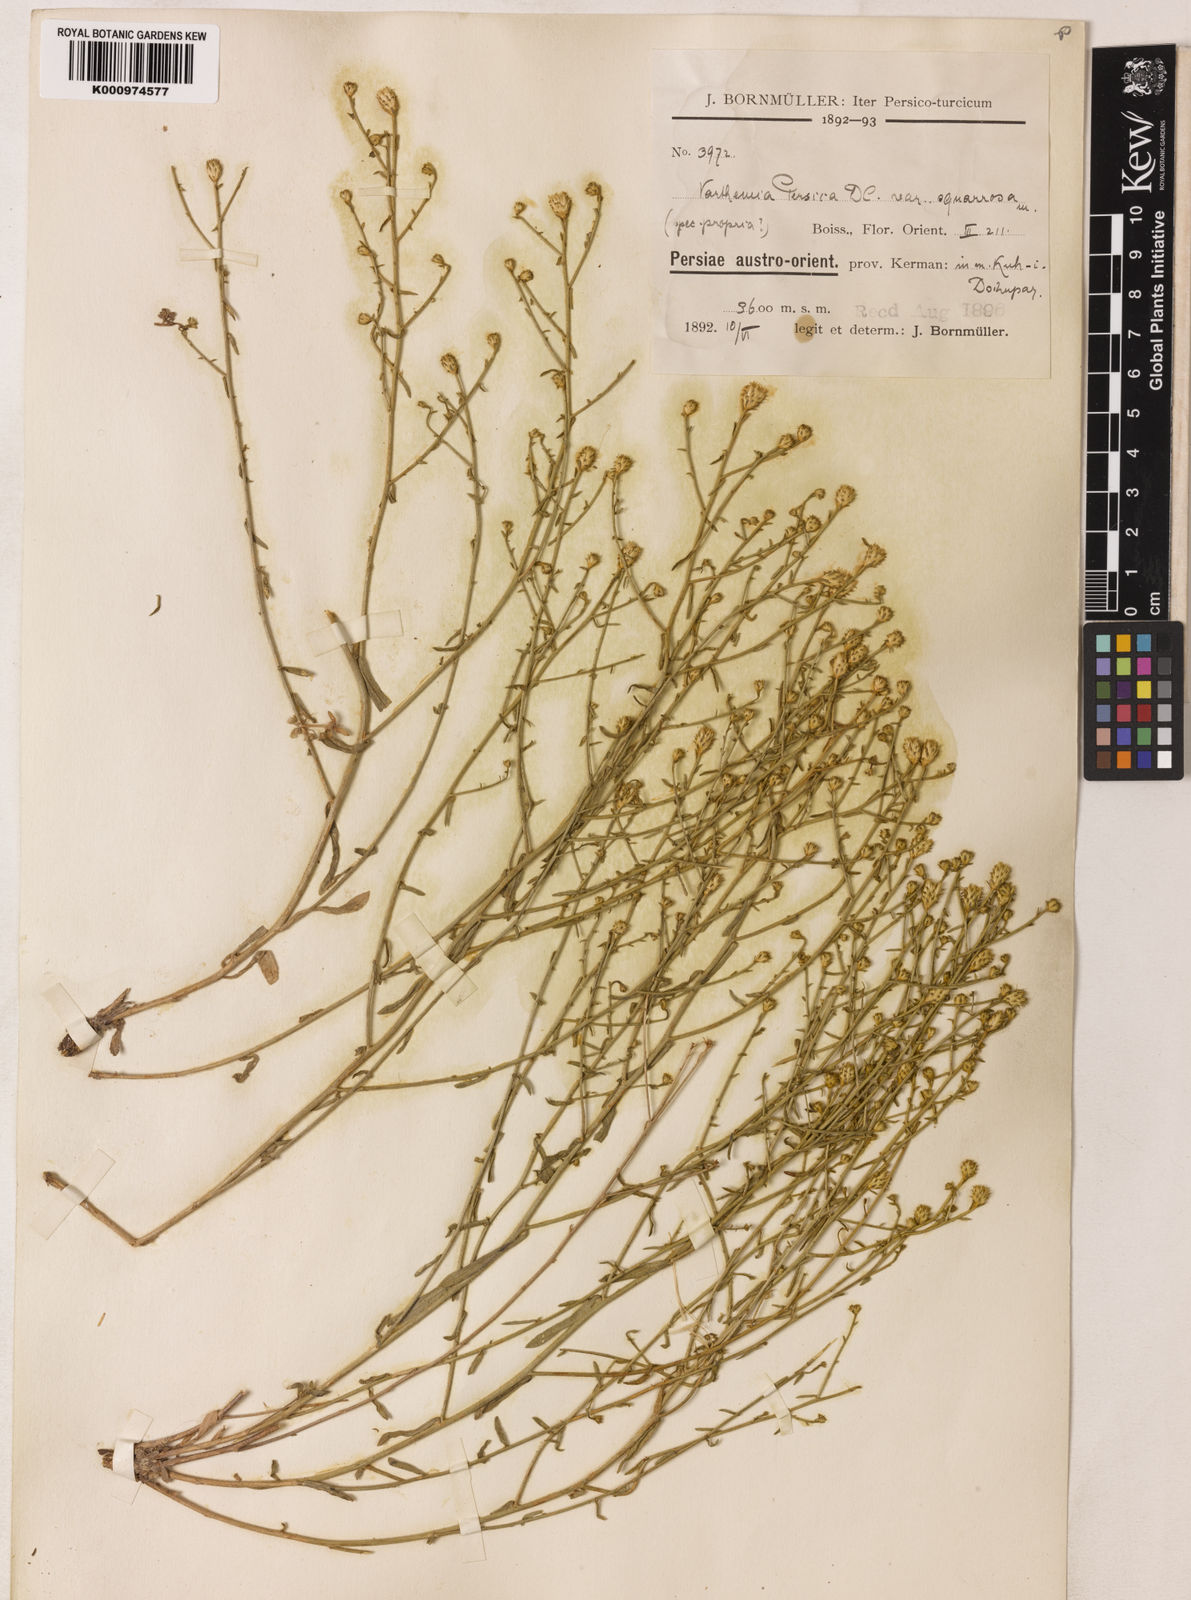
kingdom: Plantae
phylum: Tracheophyta
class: Magnoliopsida
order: Asterales
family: Asteraceae
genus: Pentanema
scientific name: Pentanema persicum
